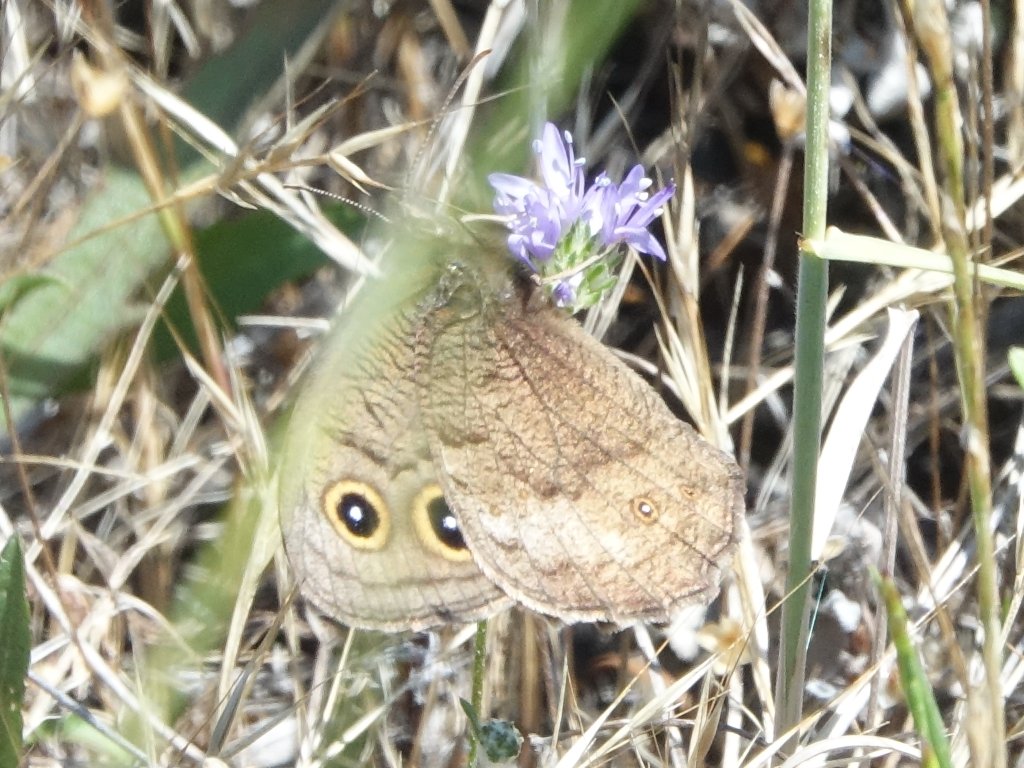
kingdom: Animalia
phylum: Arthropoda
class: Insecta
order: Lepidoptera
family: Nymphalidae
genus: Cercyonis
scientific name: Cercyonis pegala
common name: Common Wood-Nymph
